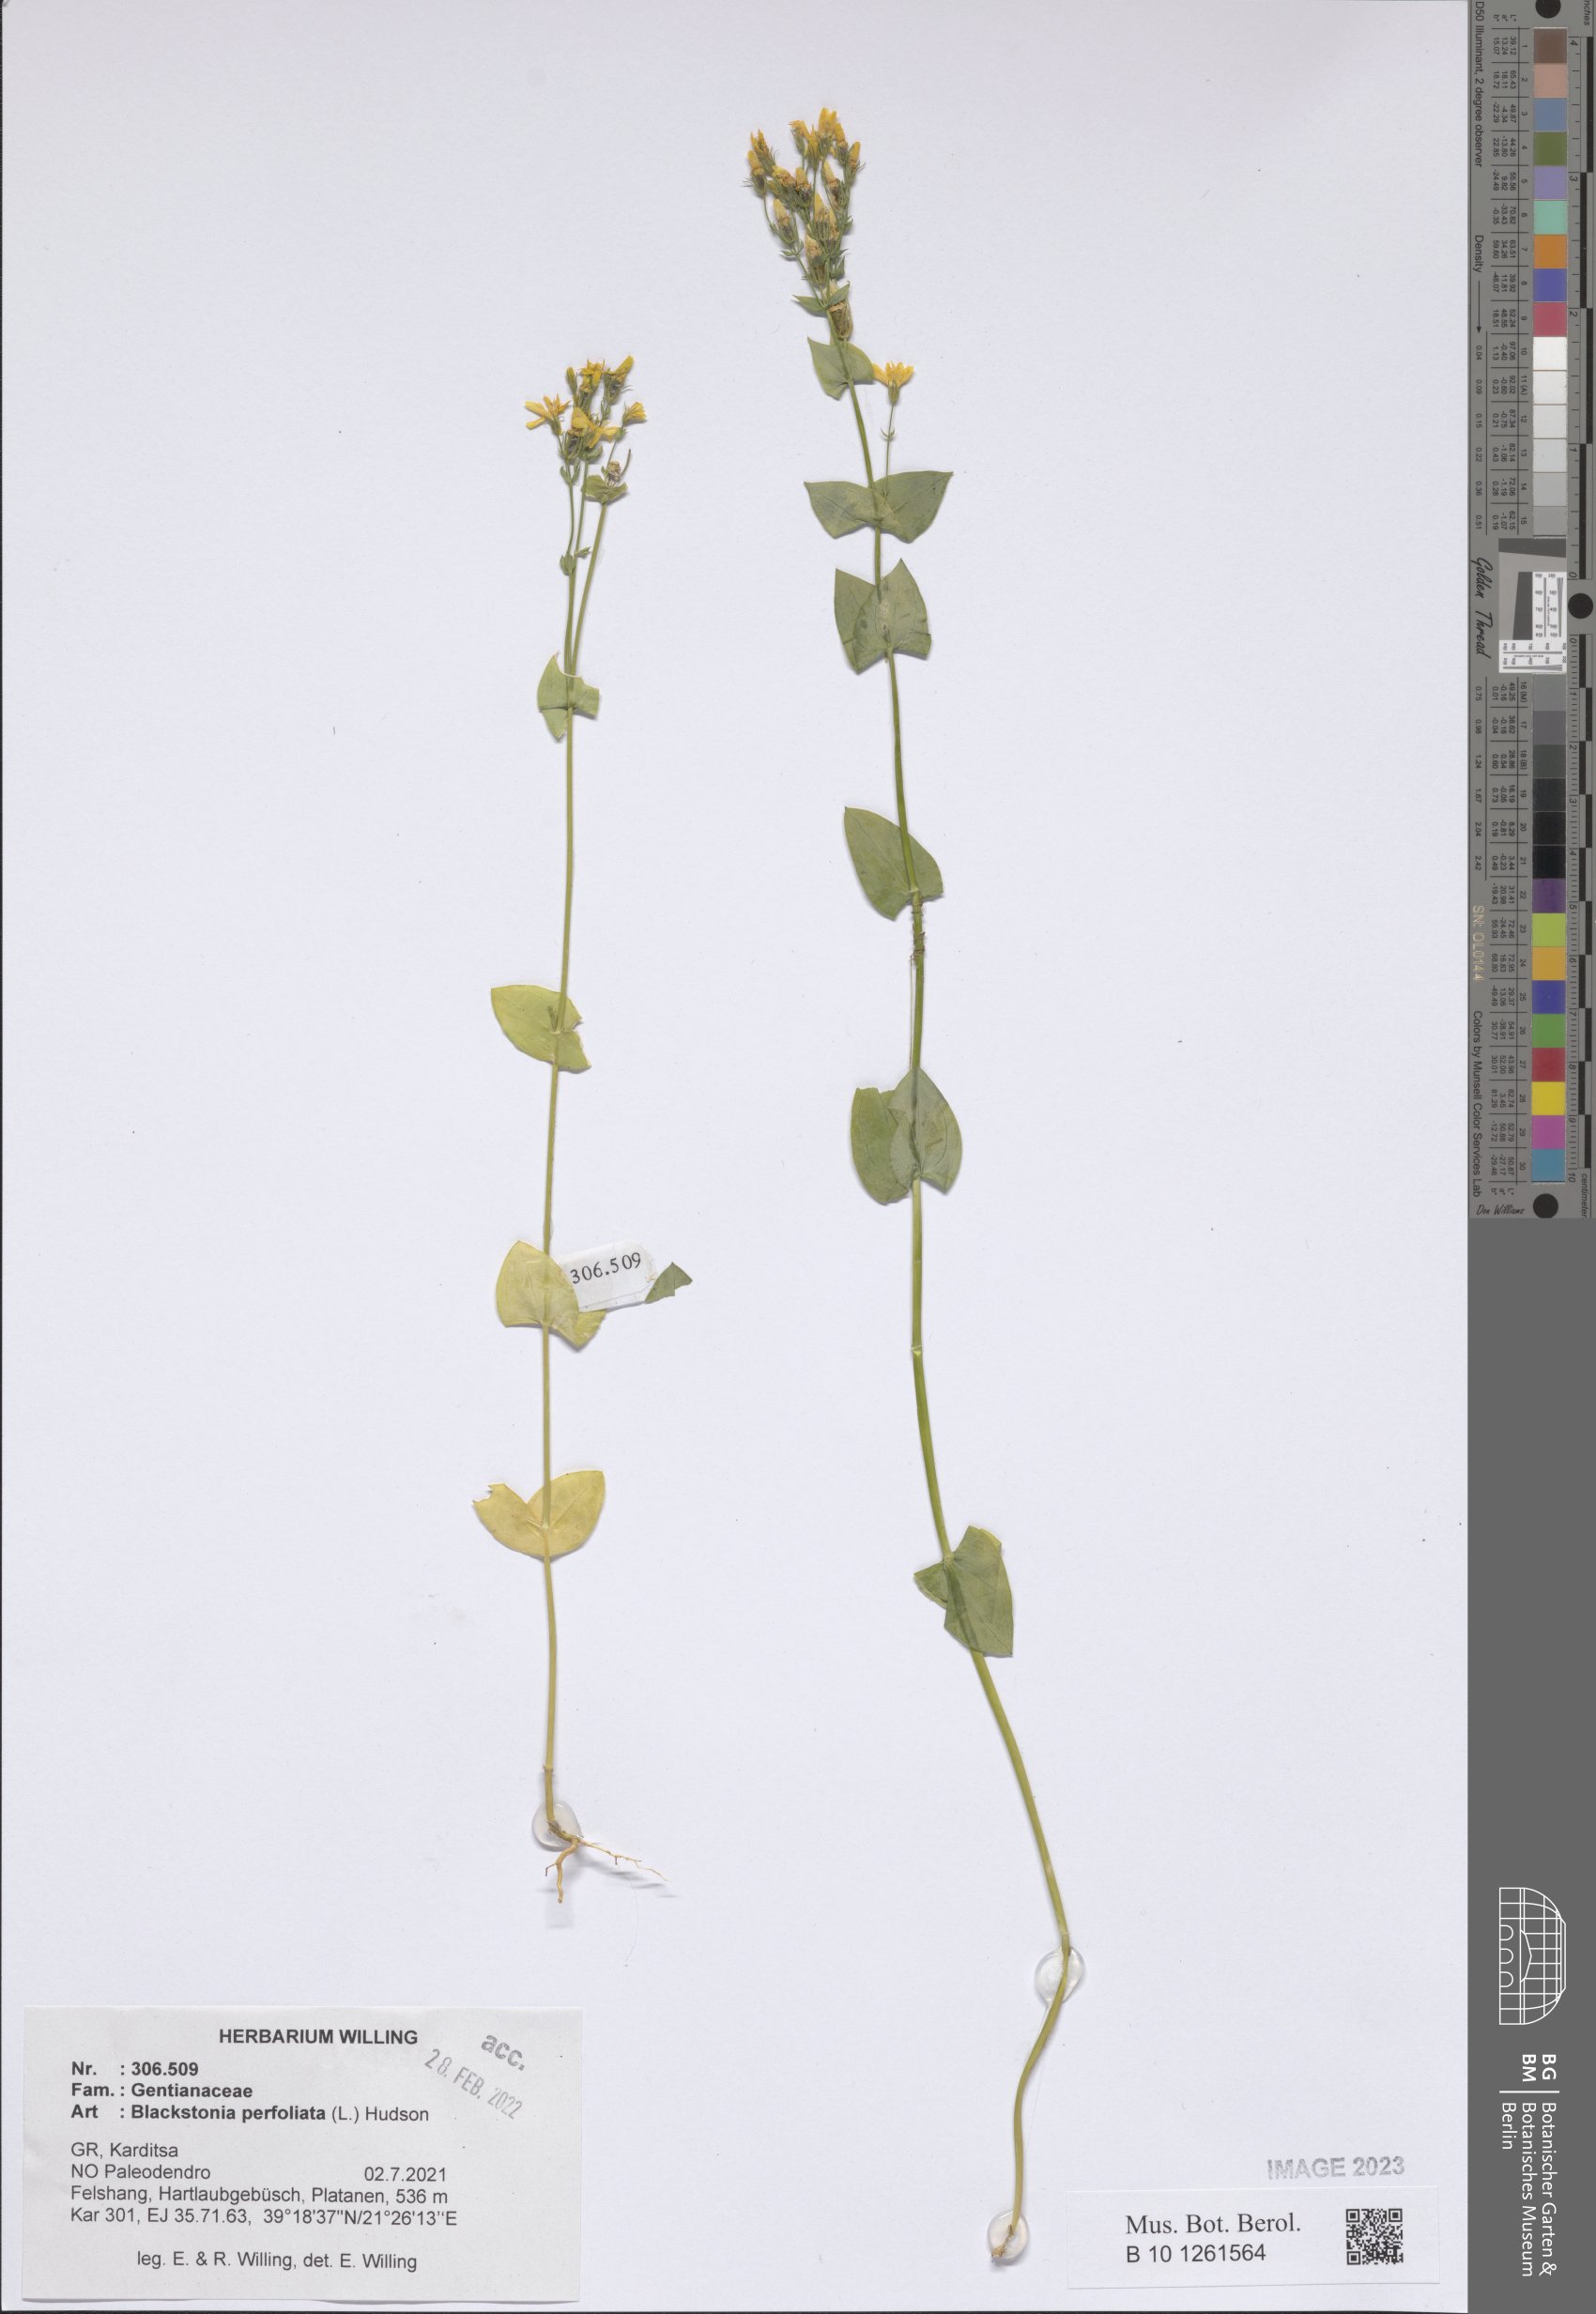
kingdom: Plantae
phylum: Tracheophyta
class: Magnoliopsida
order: Gentianales
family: Gentianaceae
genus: Blackstonia
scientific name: Blackstonia perfoliata
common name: Yellow-wort
